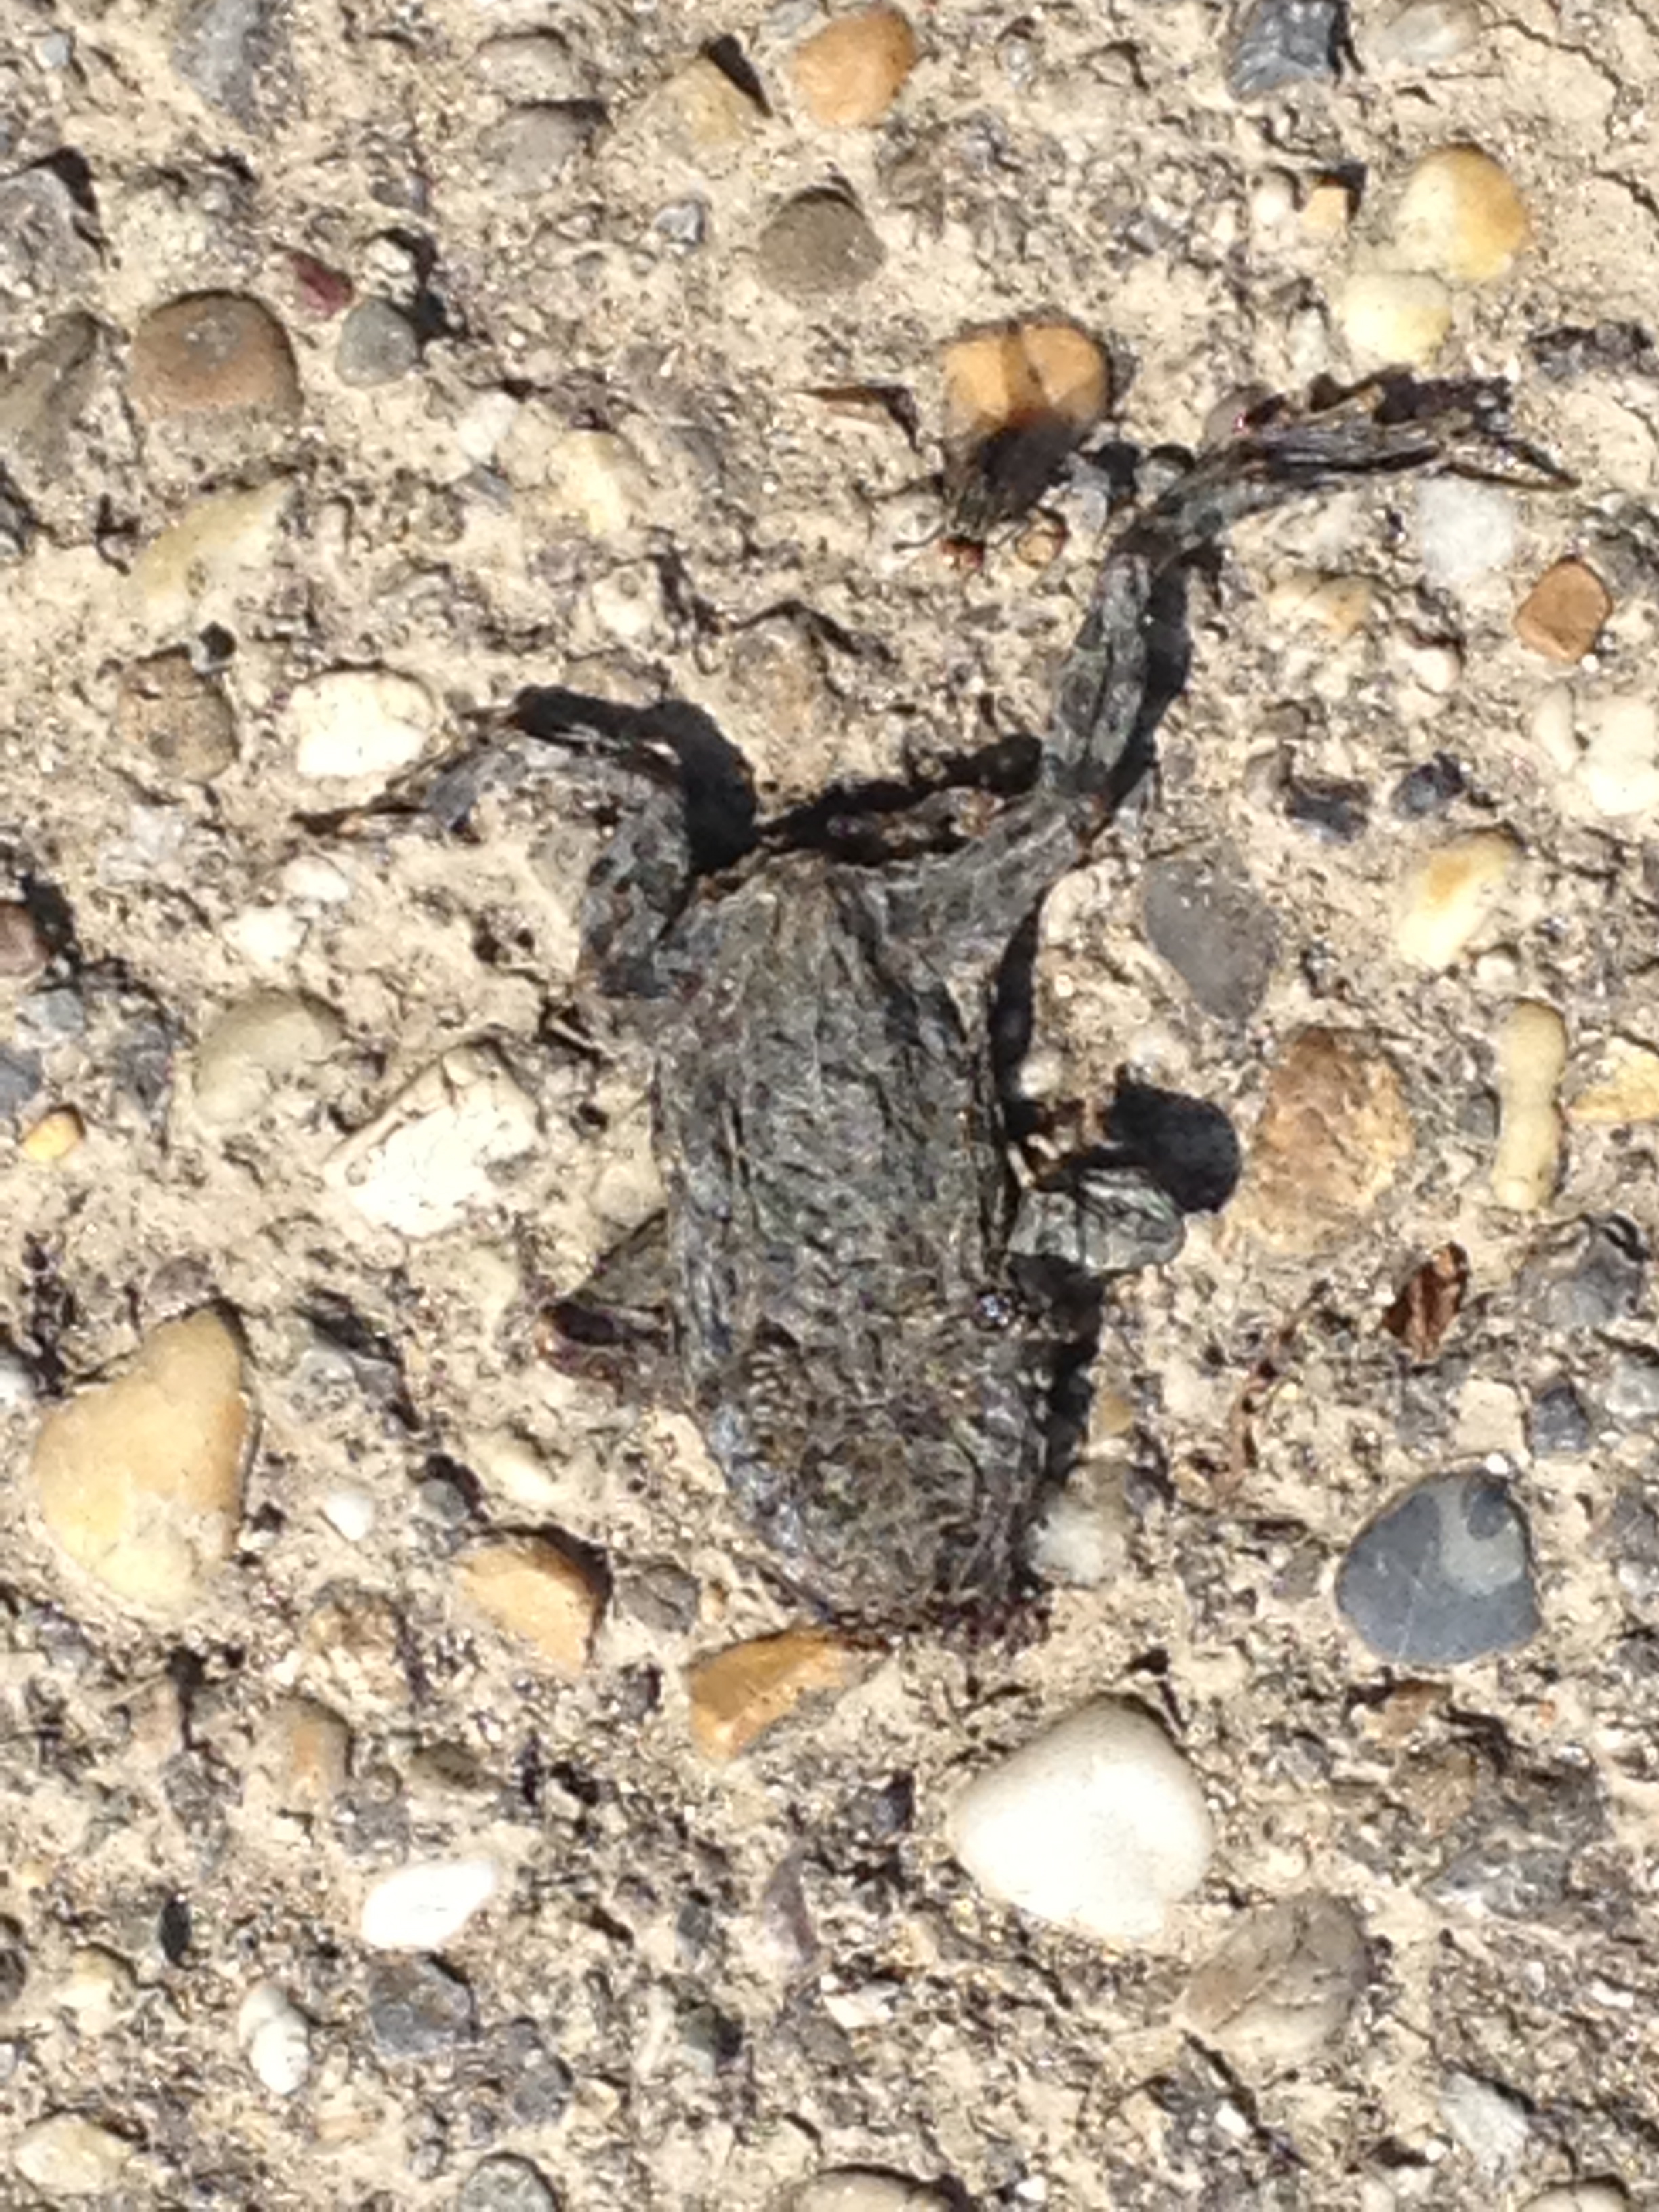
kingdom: Animalia
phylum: Chordata
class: Amphibia
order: Anura
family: Bufonidae
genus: Bufotes
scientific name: Bufotes viridis
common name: European green toad
